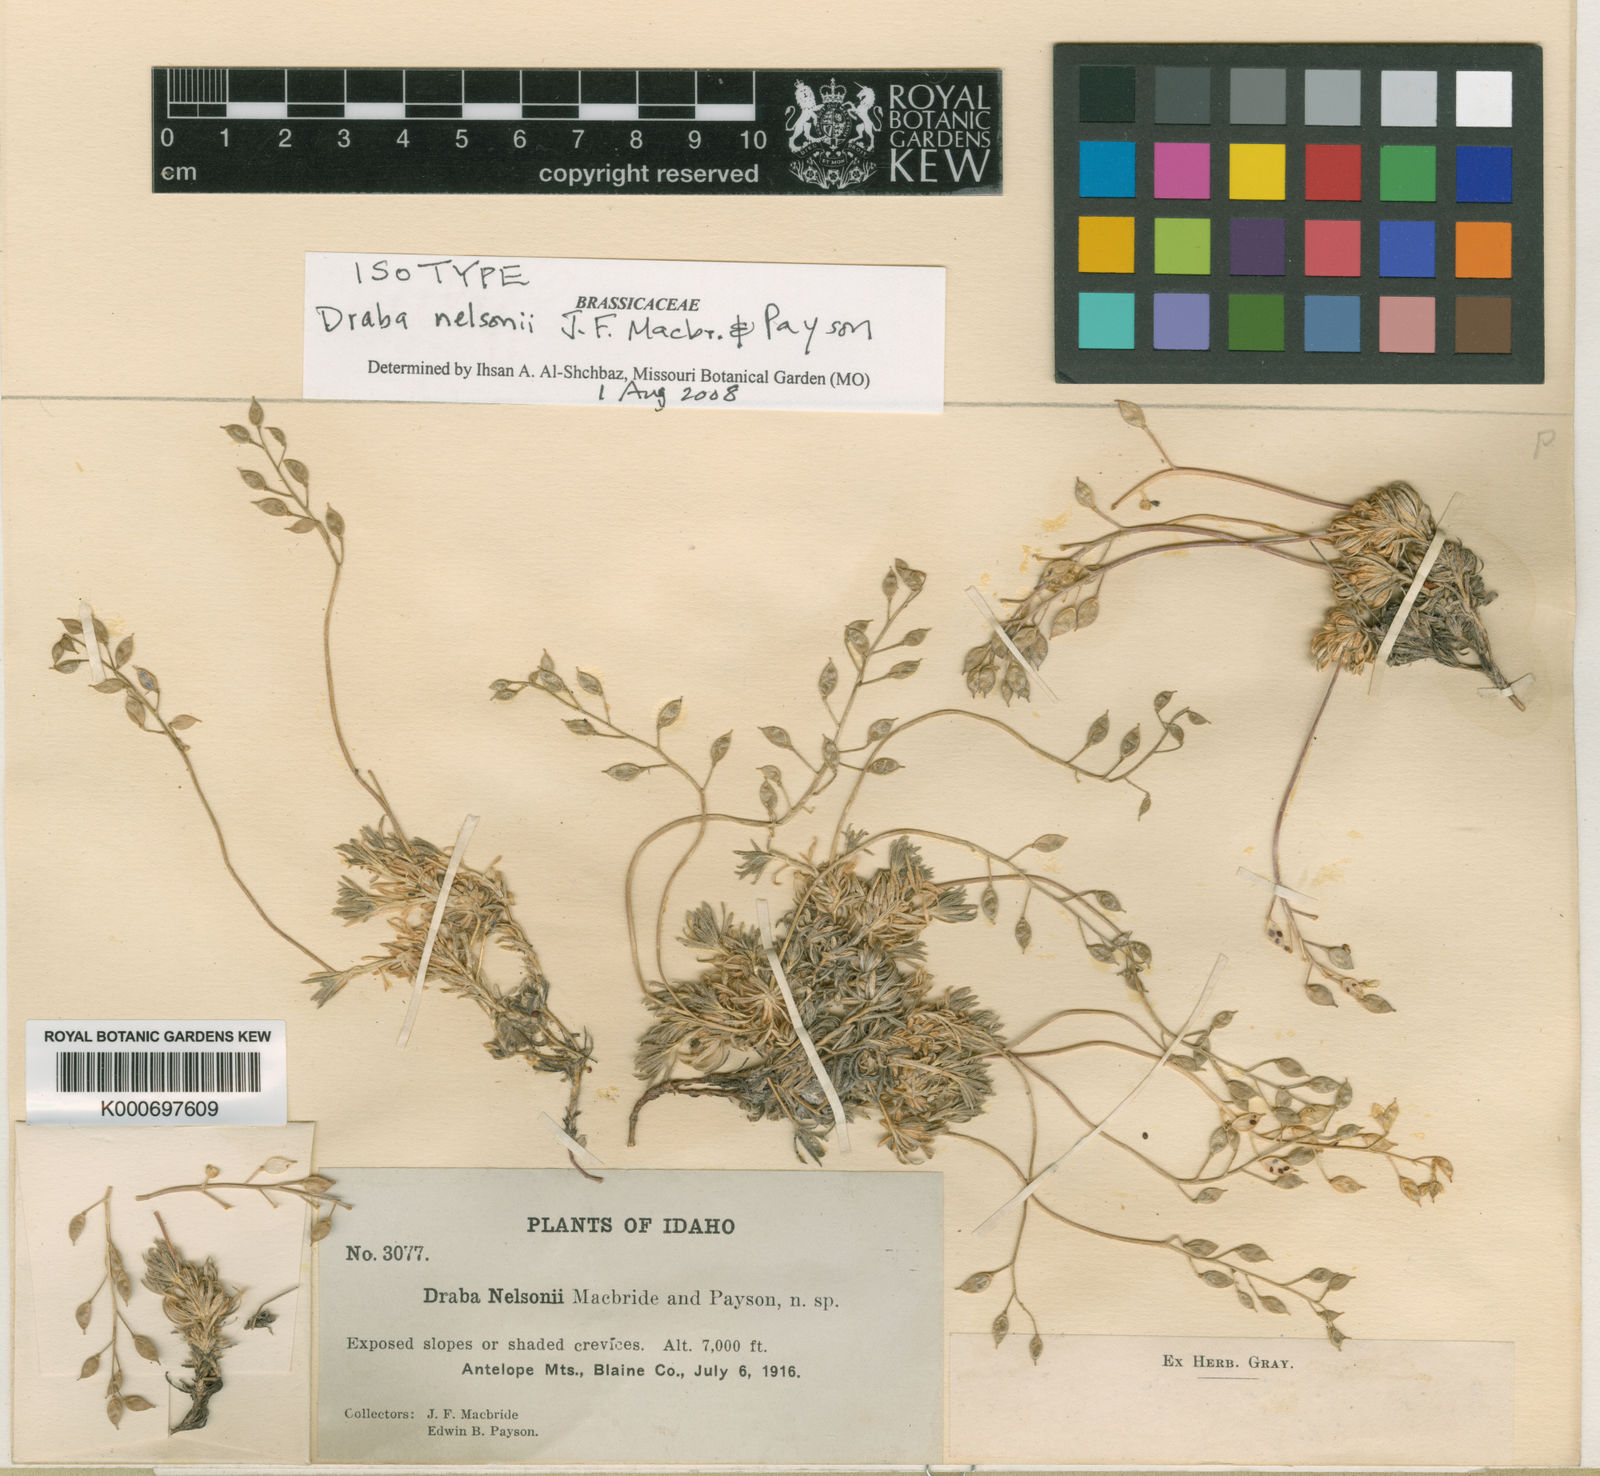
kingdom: Plantae
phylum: Tracheophyta
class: Magnoliopsida
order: Brassicales
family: Brassicaceae
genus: Draba
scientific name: Draba densifolia
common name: Nuttall's draba
